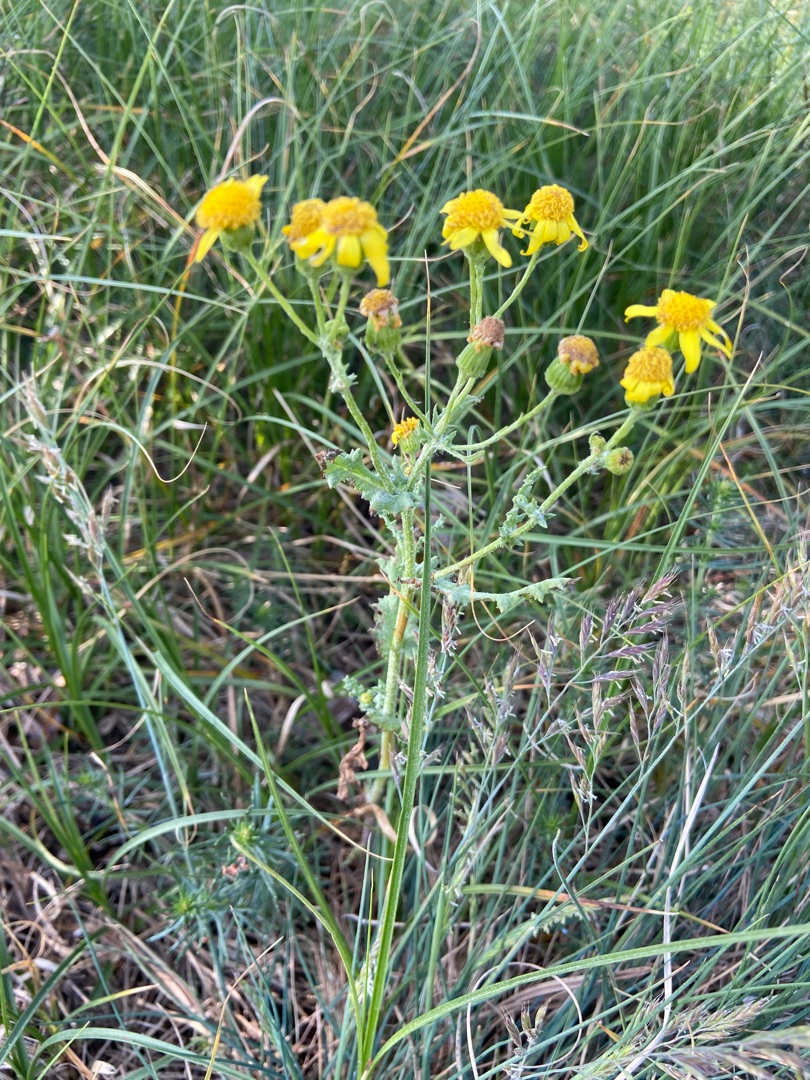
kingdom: Plantae
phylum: Tracheophyta
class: Magnoliopsida
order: Asterales
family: Asteraceae
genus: Senecio
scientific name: Senecio leucanthemifolius
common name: Vår-brandbæger
